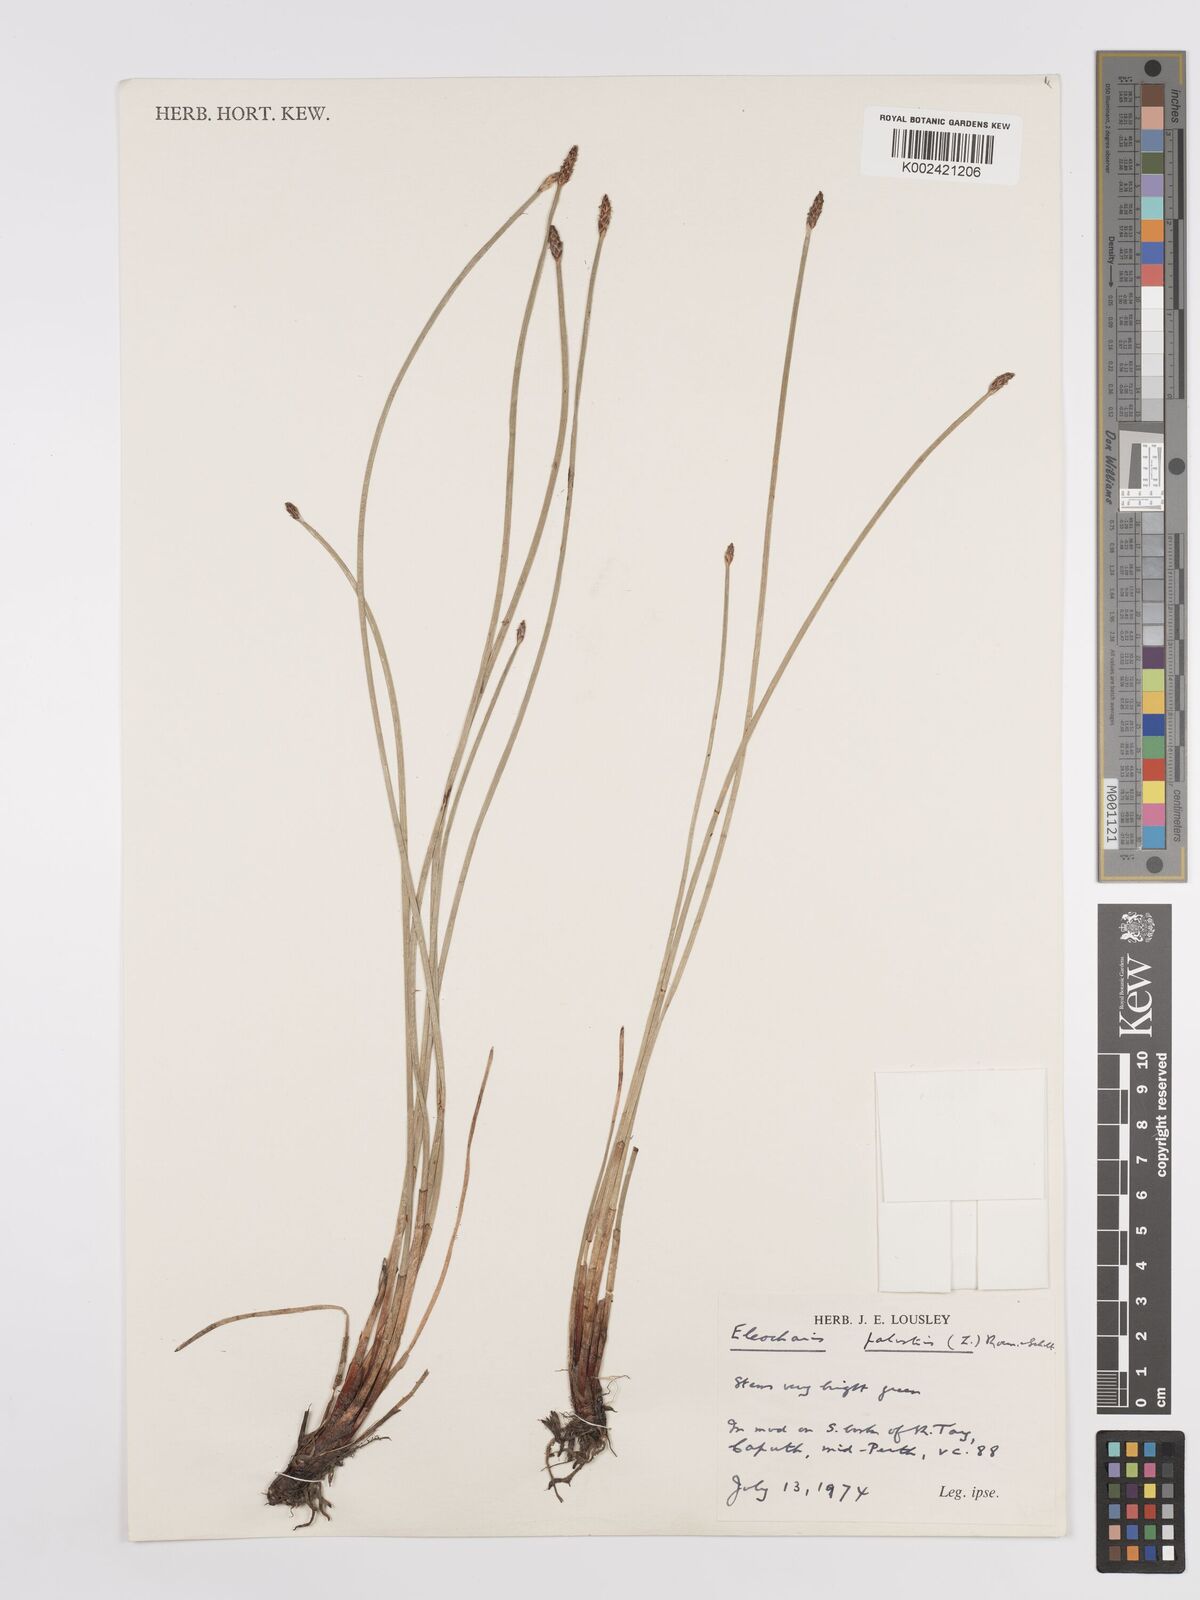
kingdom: Plantae
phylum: Tracheophyta
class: Liliopsida
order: Poales
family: Cyperaceae
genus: Eleocharis
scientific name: Eleocharis palustris
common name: Common spike-rush
